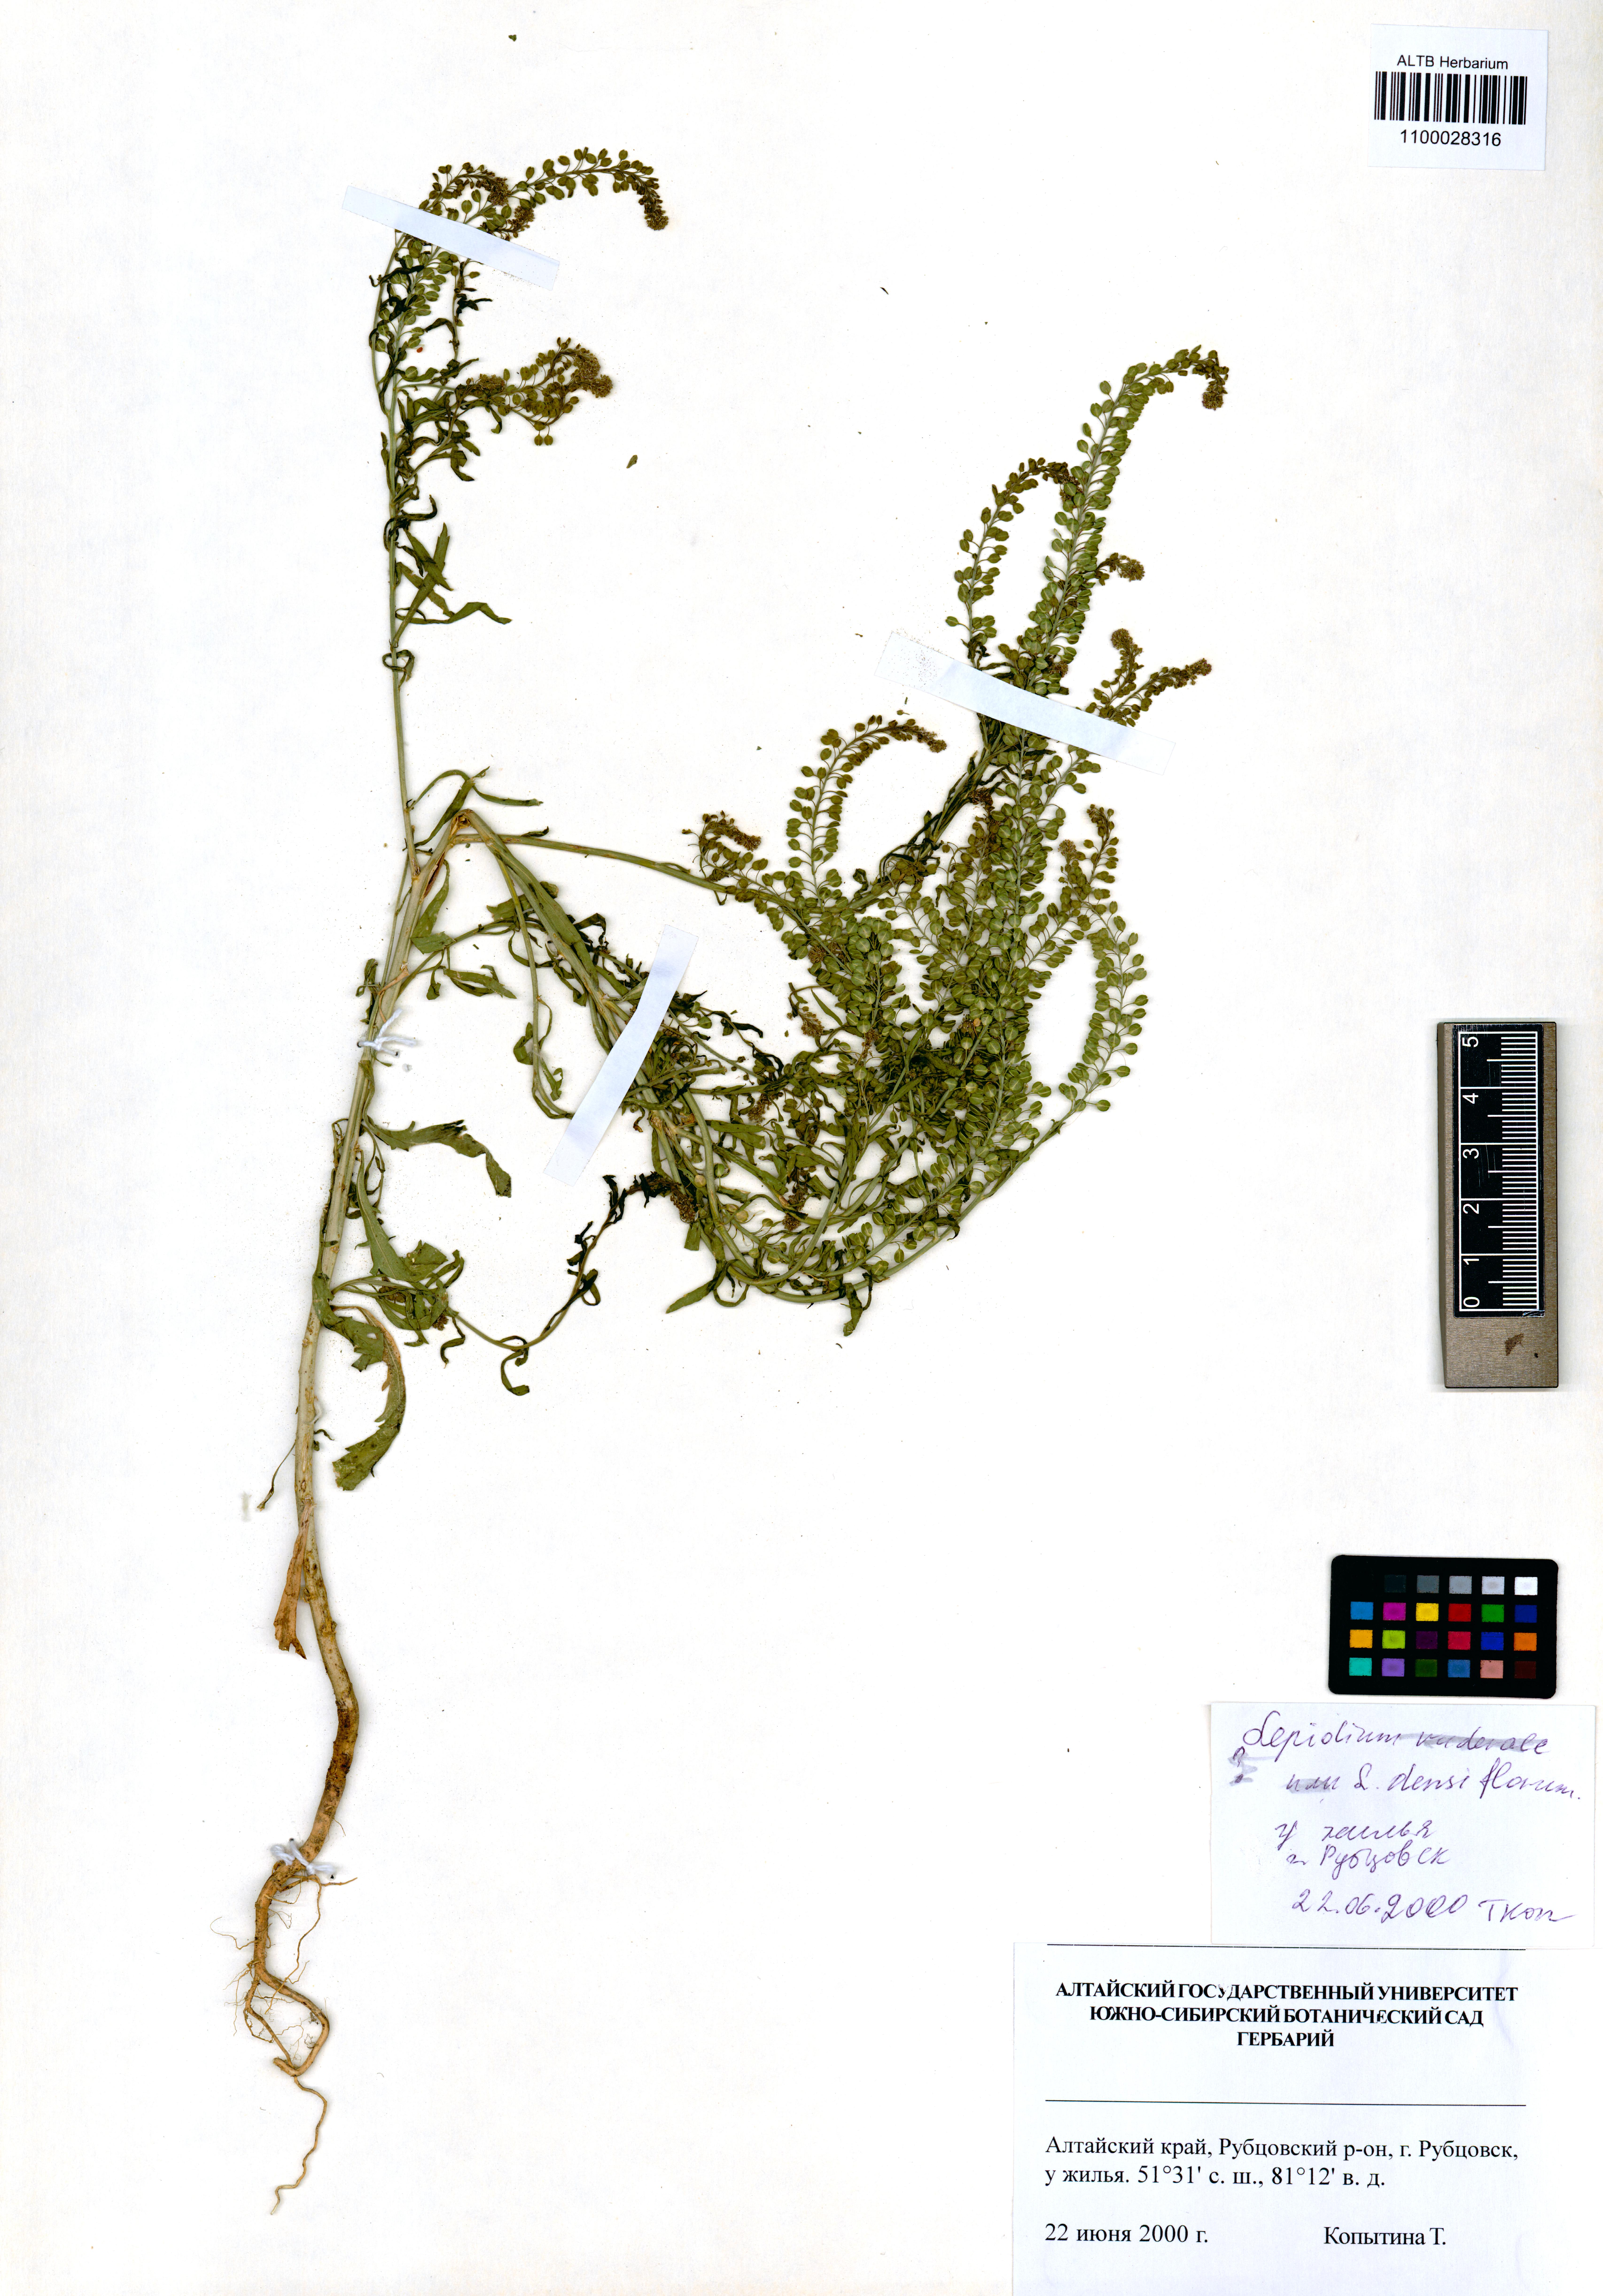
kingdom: Plantae
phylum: Tracheophyta
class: Magnoliopsida
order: Brassicales
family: Brassicaceae
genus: Lepidium
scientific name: Lepidium densiflorum
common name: Miner's pepperwort
